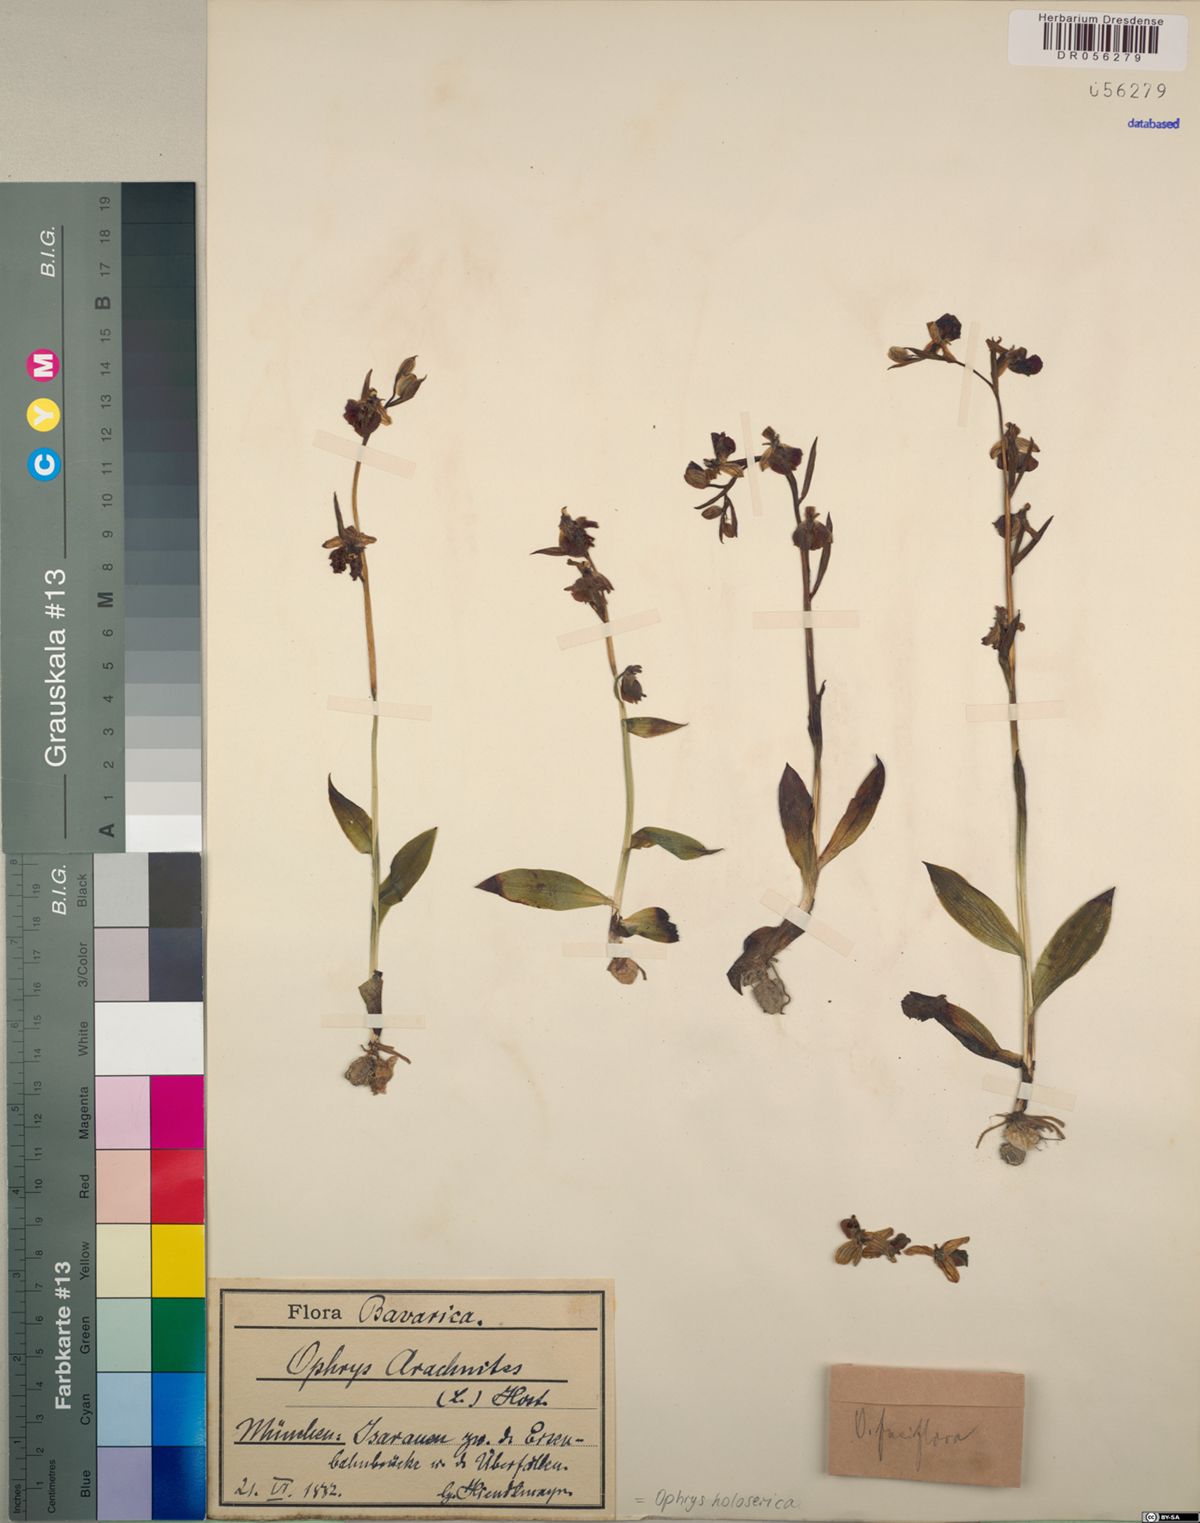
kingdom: Plantae
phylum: Tracheophyta
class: Liliopsida
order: Asparagales
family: Orchidaceae
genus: Ophrys
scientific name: Ophrys holosericea
